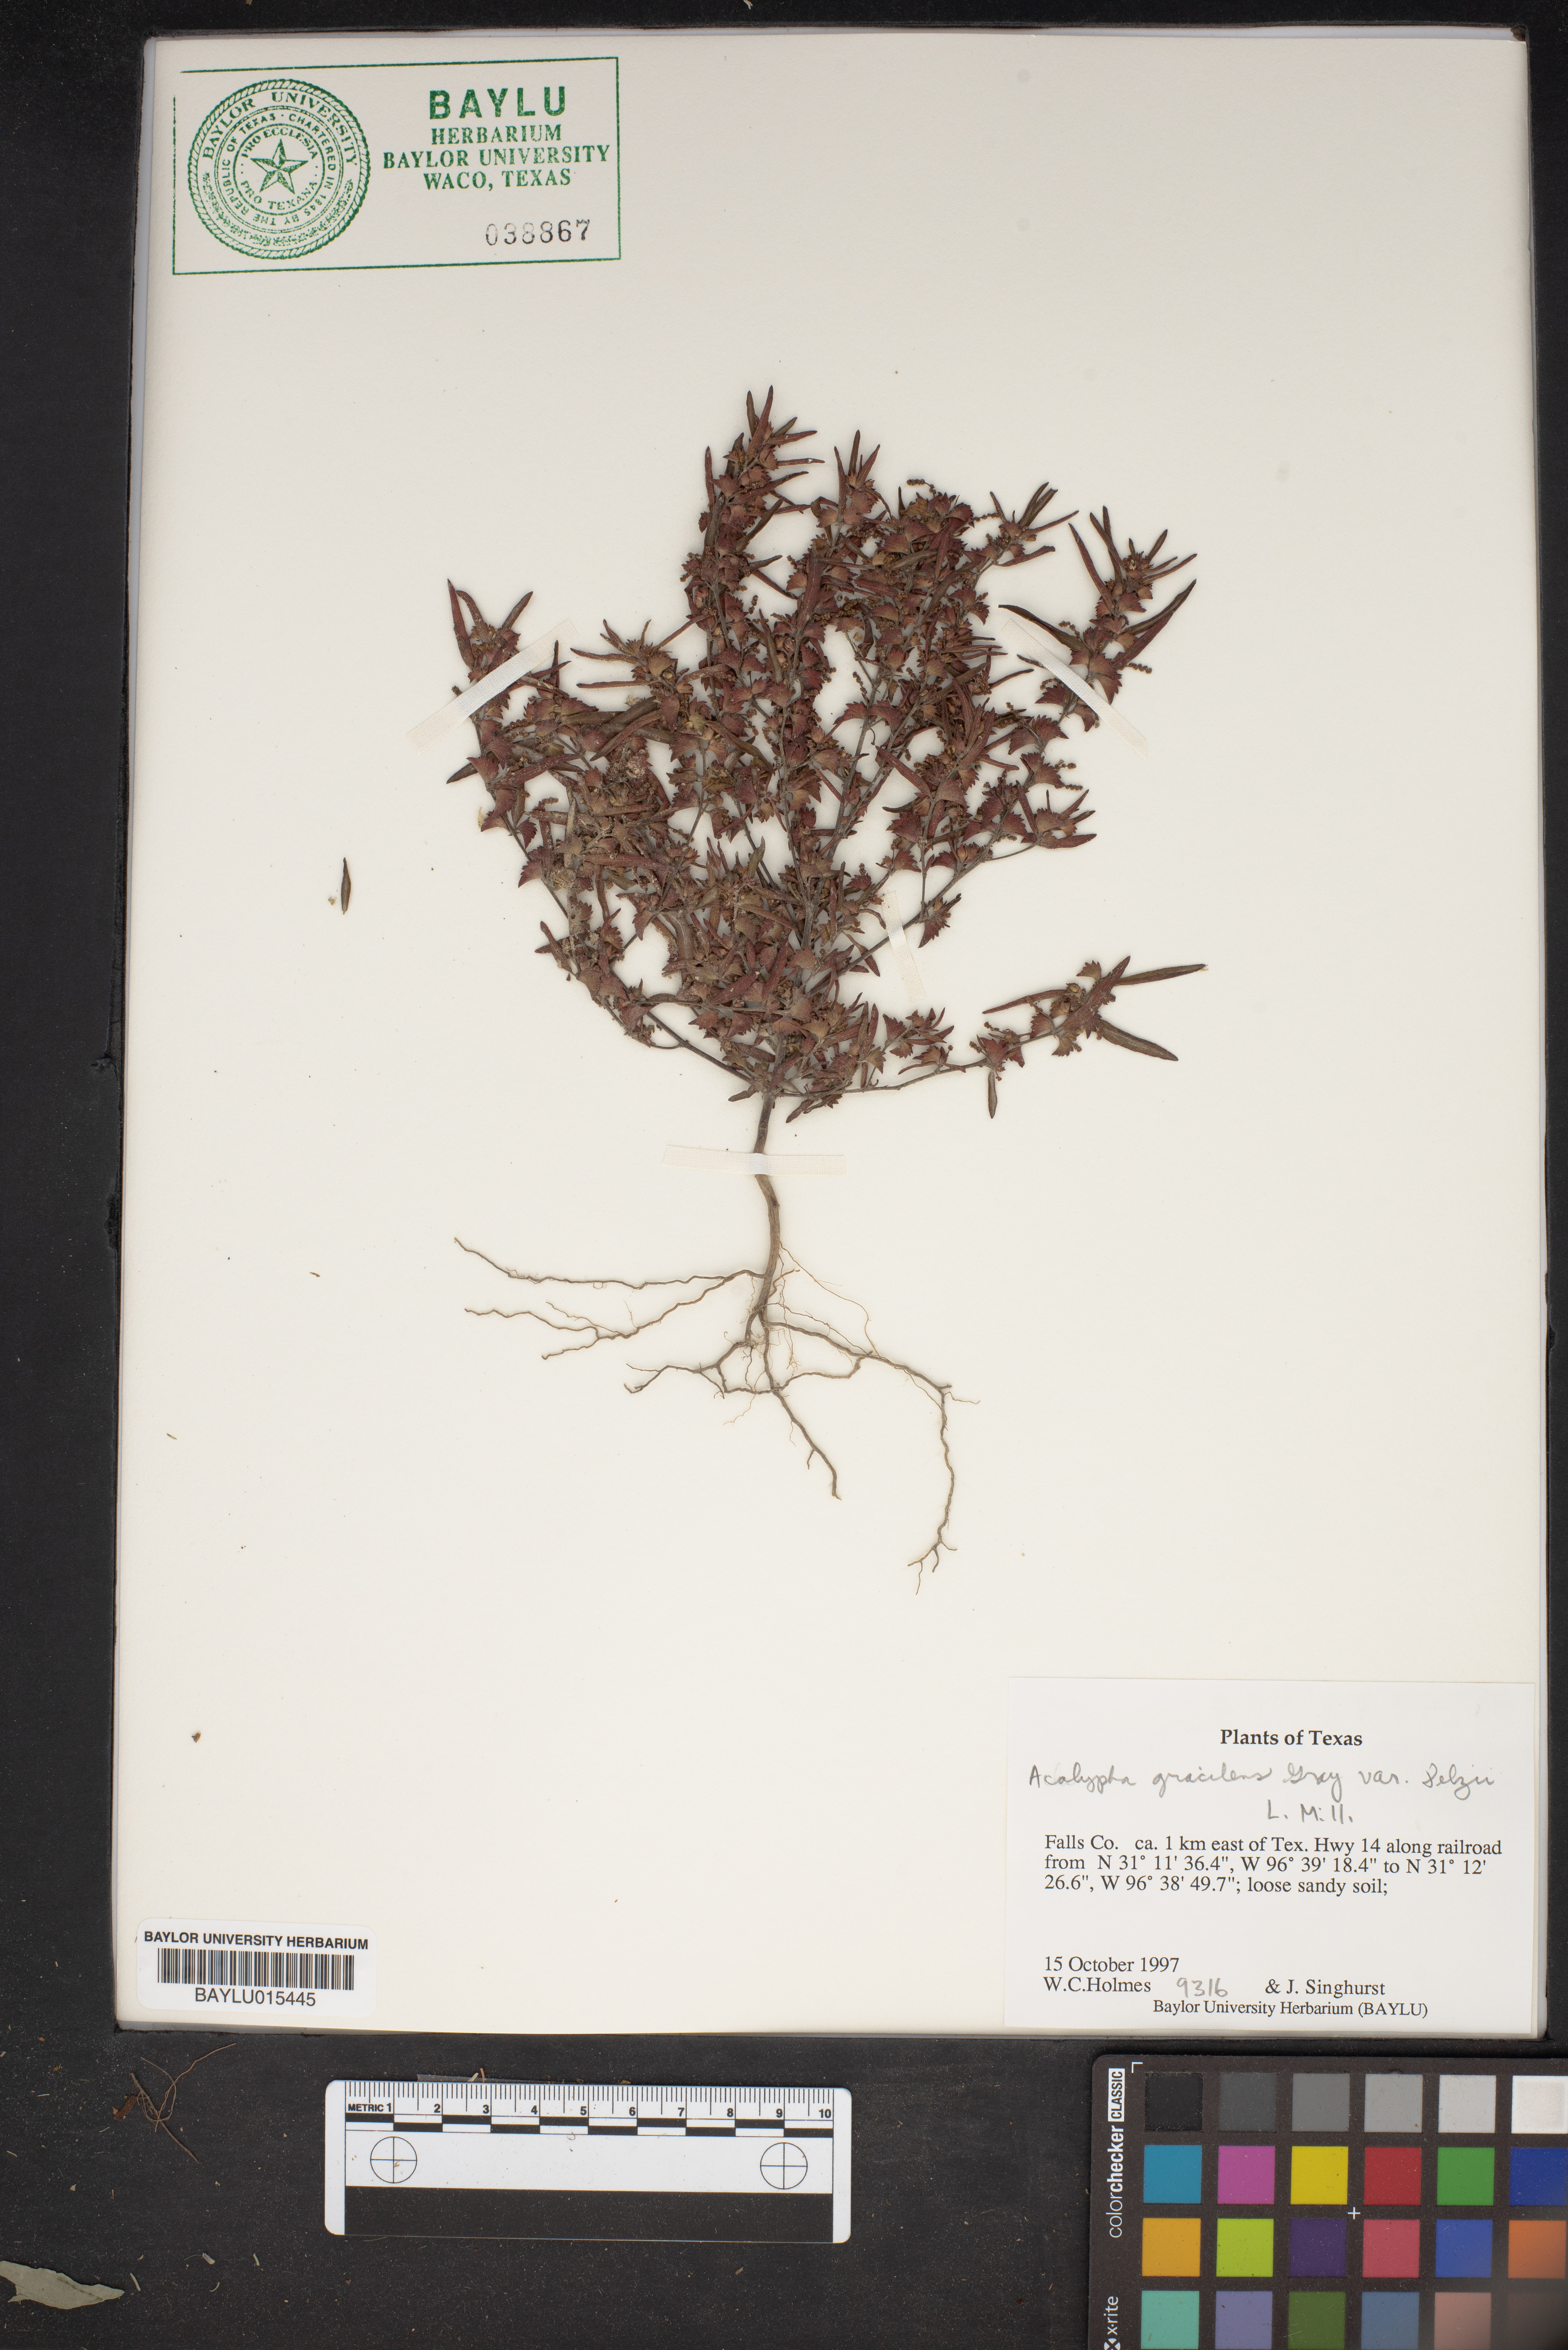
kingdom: Plantae
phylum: Tracheophyta
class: Magnoliopsida
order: Malpighiales
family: Euphorbiaceae
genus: Acalypha
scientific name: Acalypha gracilens
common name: Slender three-seeded mercury
